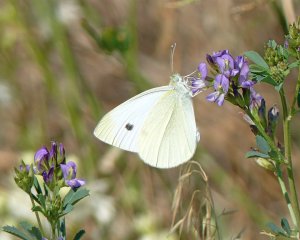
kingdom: Animalia
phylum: Arthropoda
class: Insecta
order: Lepidoptera
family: Pieridae
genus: Pieris
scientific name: Pieris rapae
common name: Cabbage White
